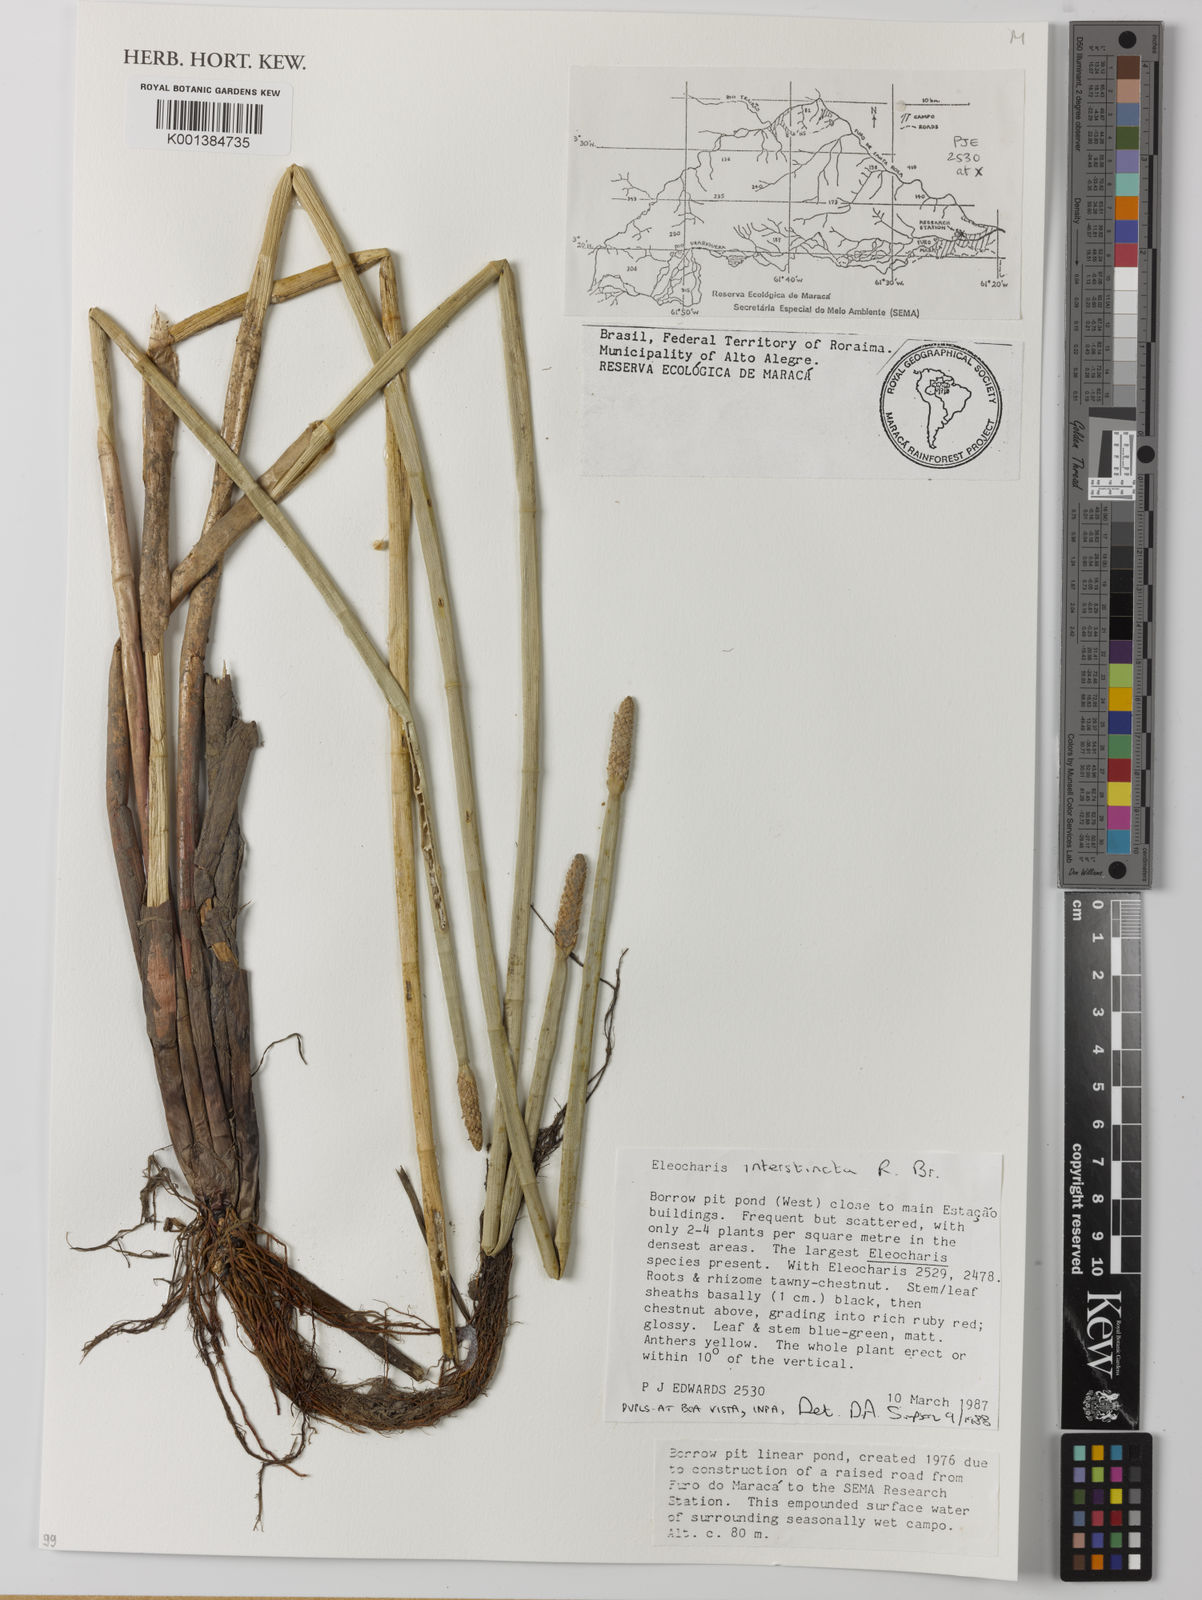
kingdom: Plantae
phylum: Tracheophyta
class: Liliopsida
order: Poales
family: Cyperaceae
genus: Eleocharis
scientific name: Eleocharis interstincta
